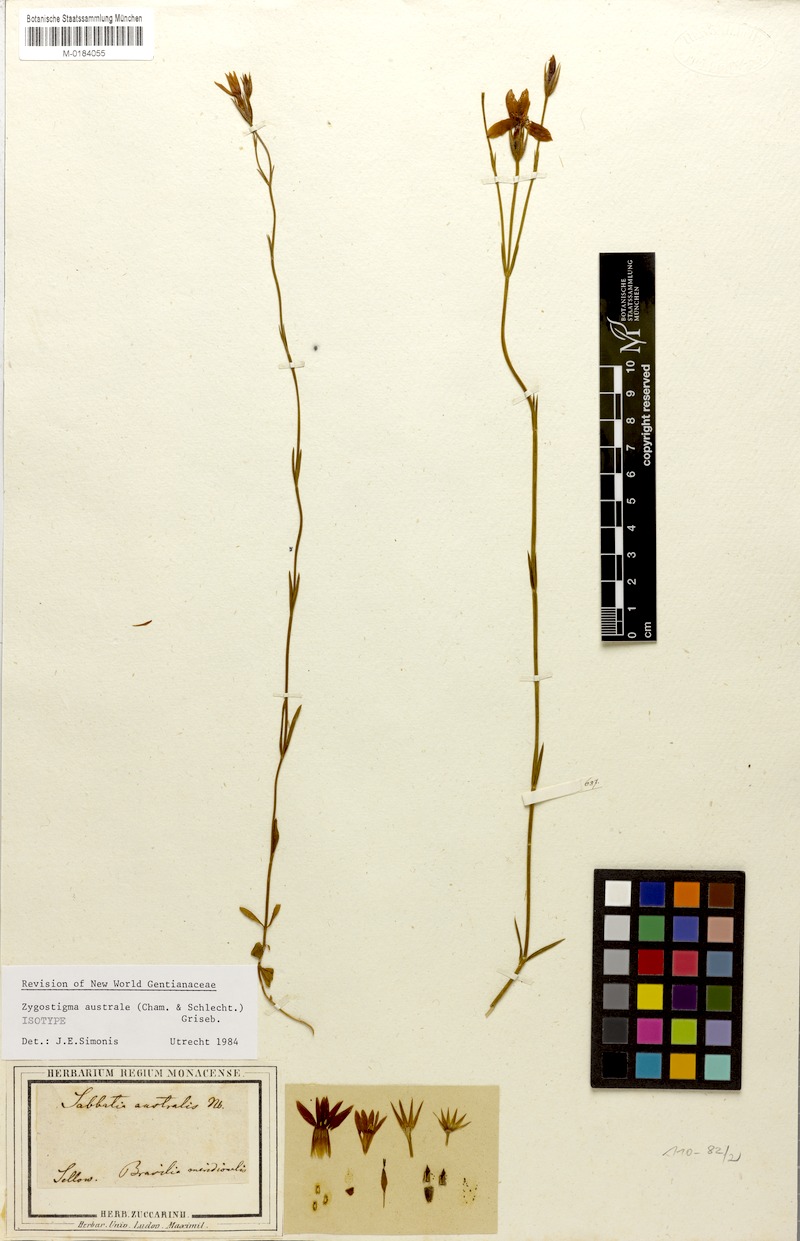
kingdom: Plantae
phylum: Tracheophyta
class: Magnoliopsida
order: Gentianales
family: Gentianaceae
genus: Zygostigma
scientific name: Zygostigma australe
